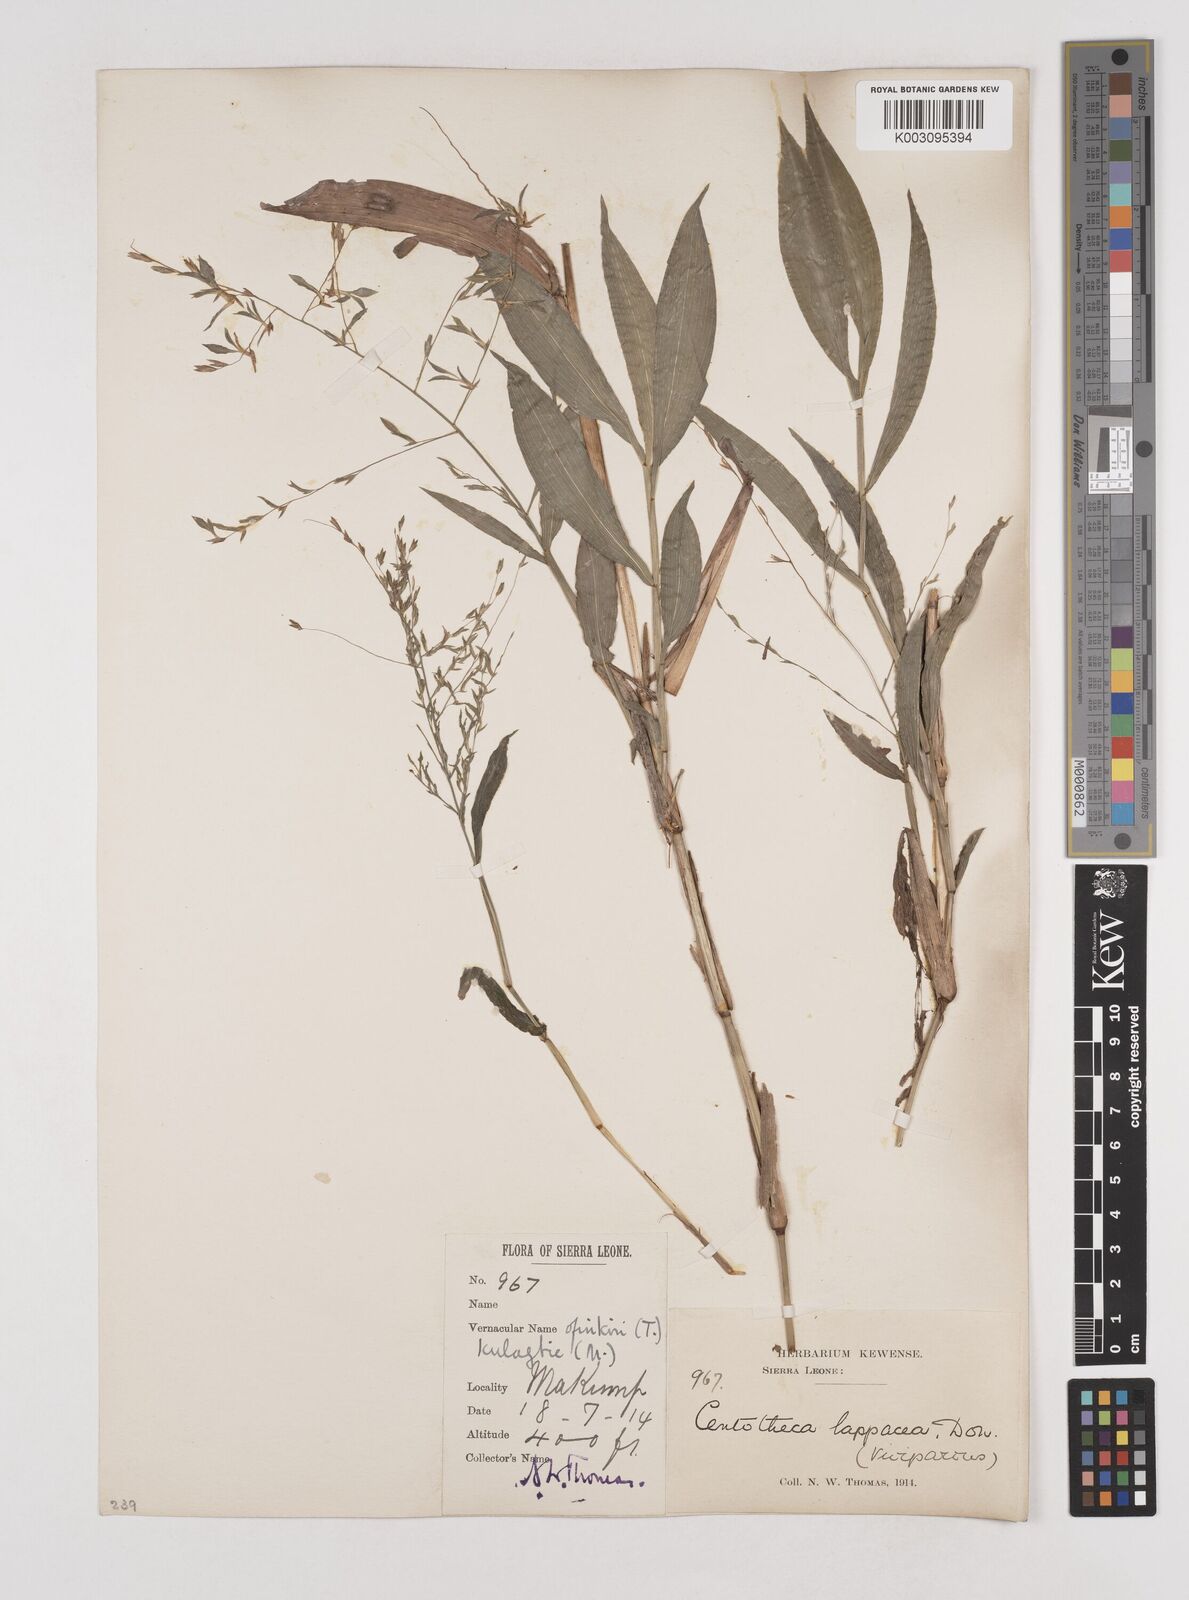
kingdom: Plantae
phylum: Tracheophyta
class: Liliopsida
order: Poales
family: Poaceae
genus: Centotheca
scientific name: Centotheca lappacea
